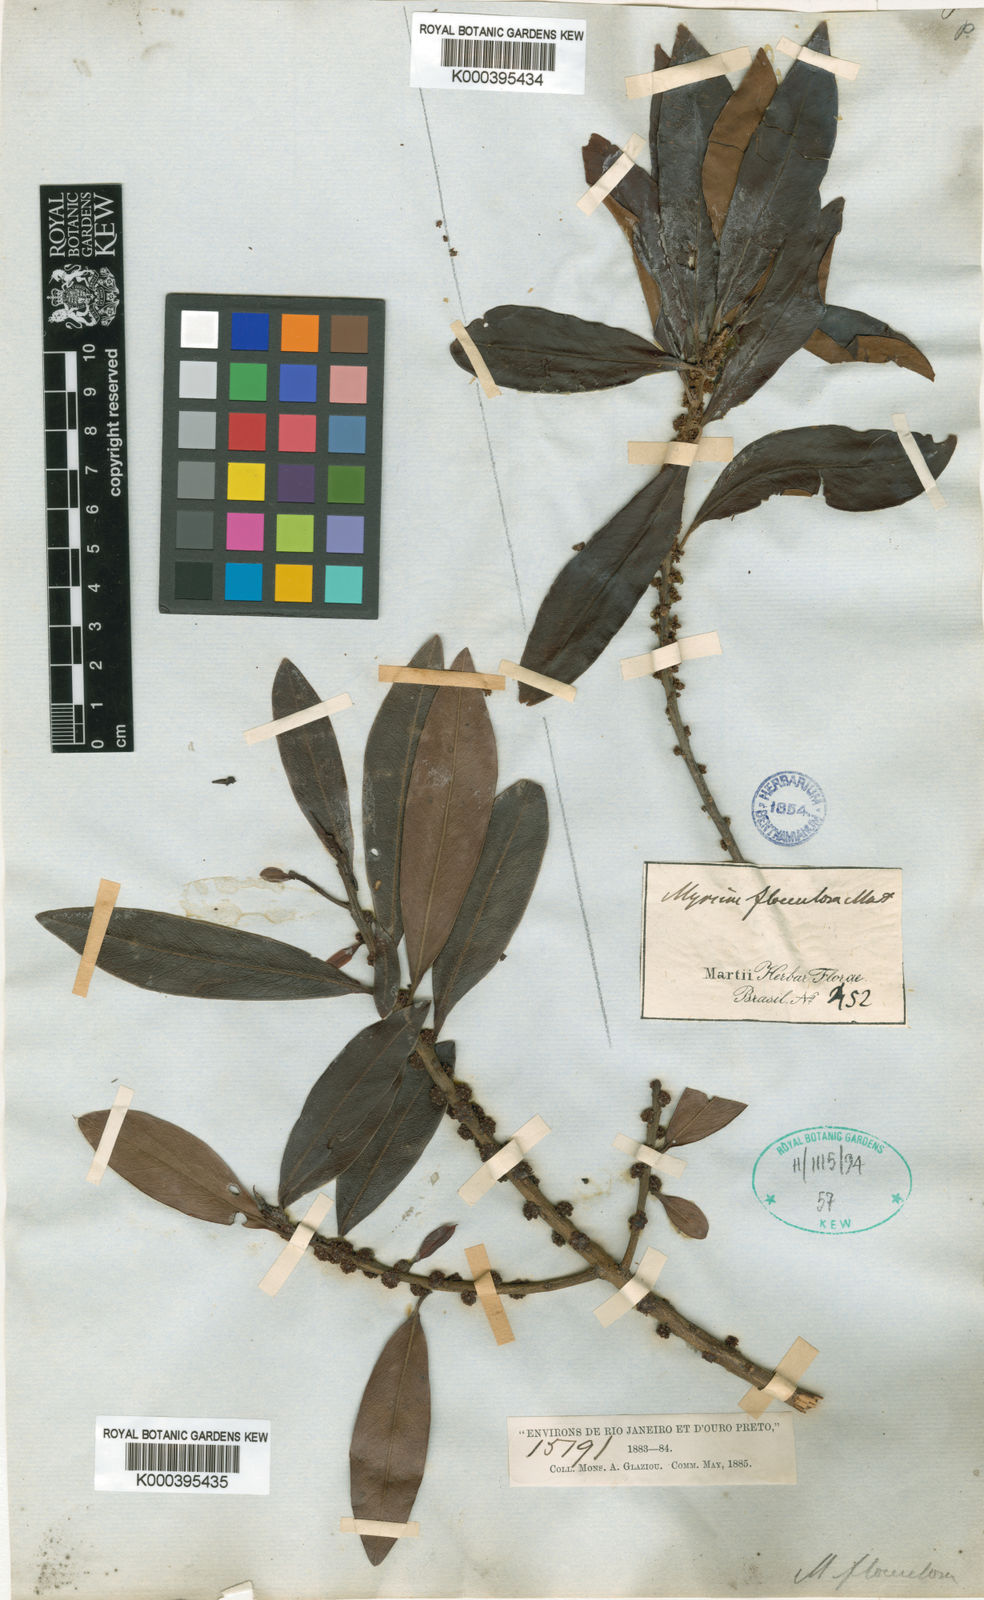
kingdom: Plantae
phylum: Tracheophyta
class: Magnoliopsida
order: Ericales
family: Primulaceae
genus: Myrsine
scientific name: Myrsine
